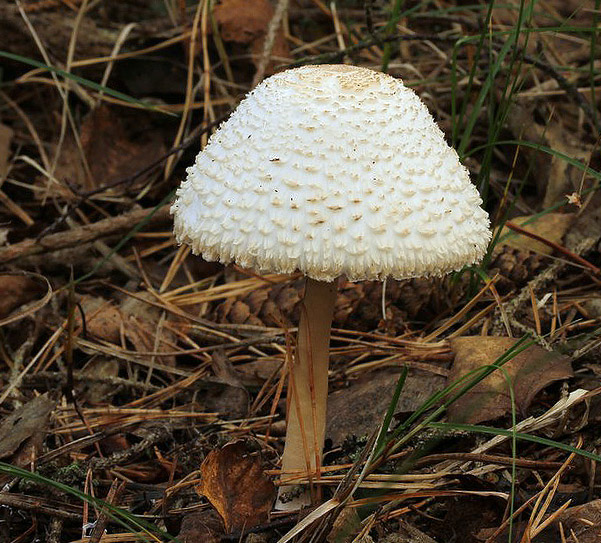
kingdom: Fungi
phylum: Basidiomycota
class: Agaricomycetes
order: Agaricales
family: Agaricaceae
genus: Leucoagaricus
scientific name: Leucoagaricus nympharum
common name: gran-silkehat
